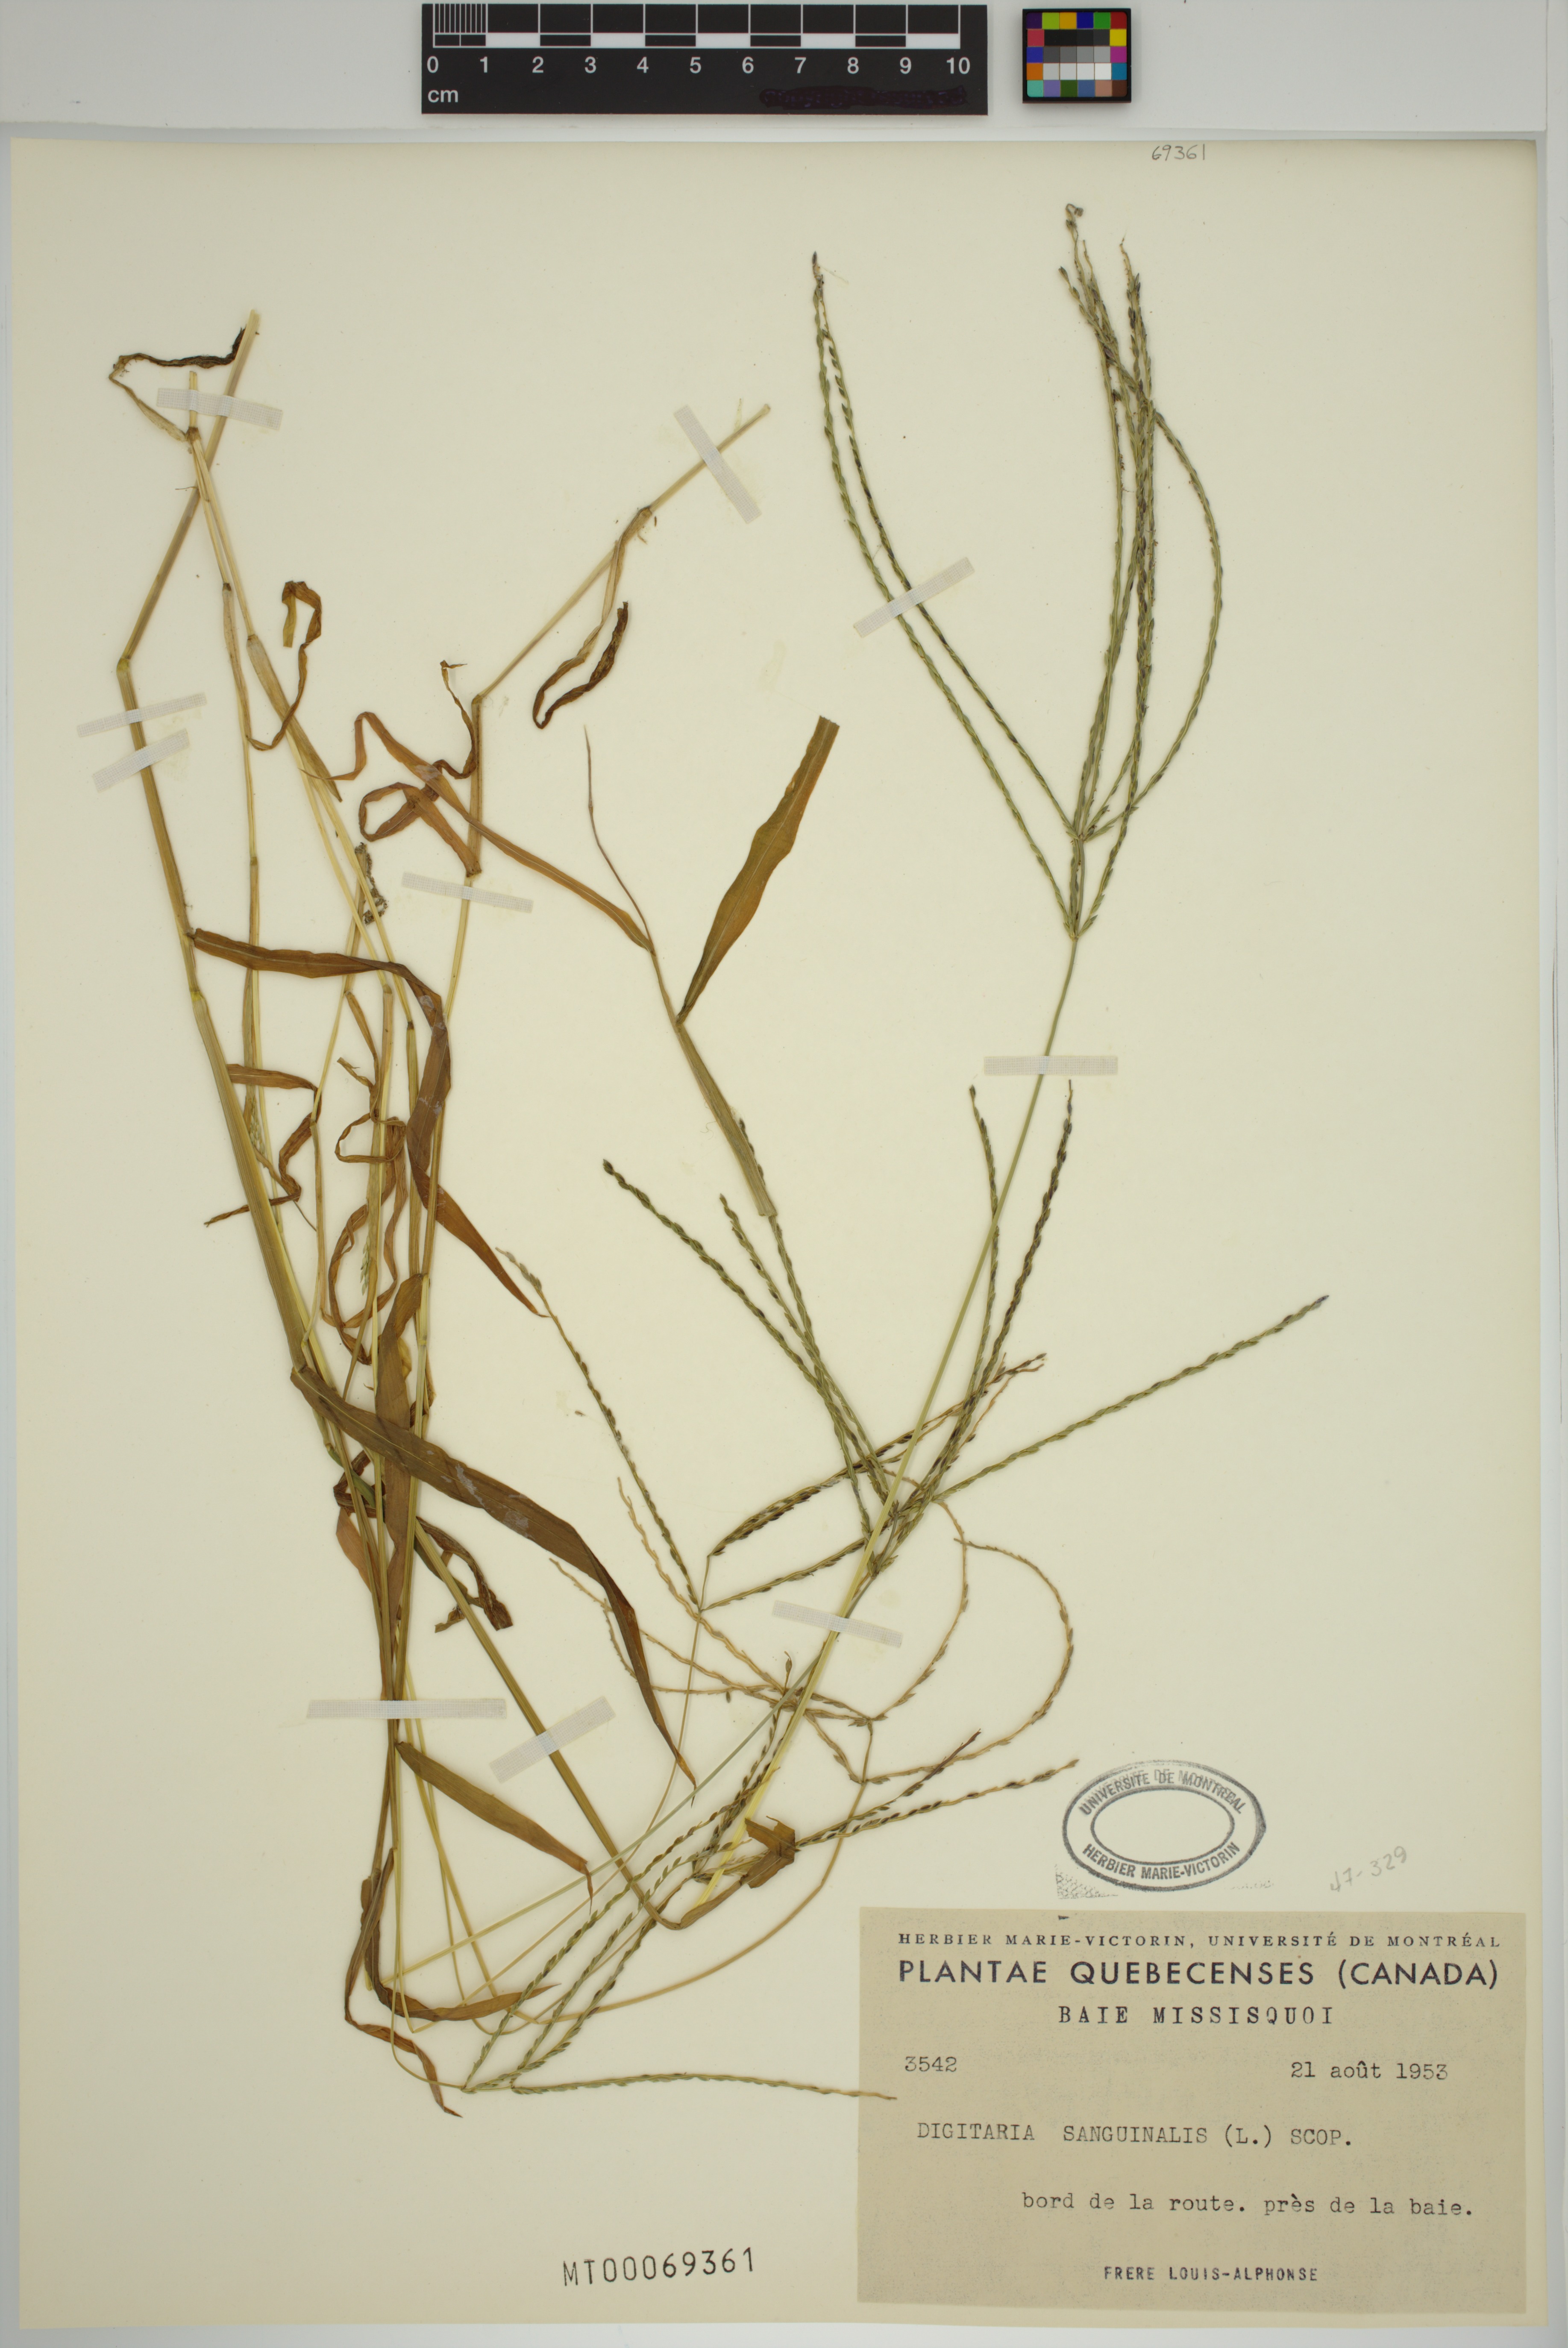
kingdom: Plantae
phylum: Tracheophyta
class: Liliopsida
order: Poales
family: Poaceae
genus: Digitaria
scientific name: Digitaria sanguinalis
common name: Hairy crabgrass
